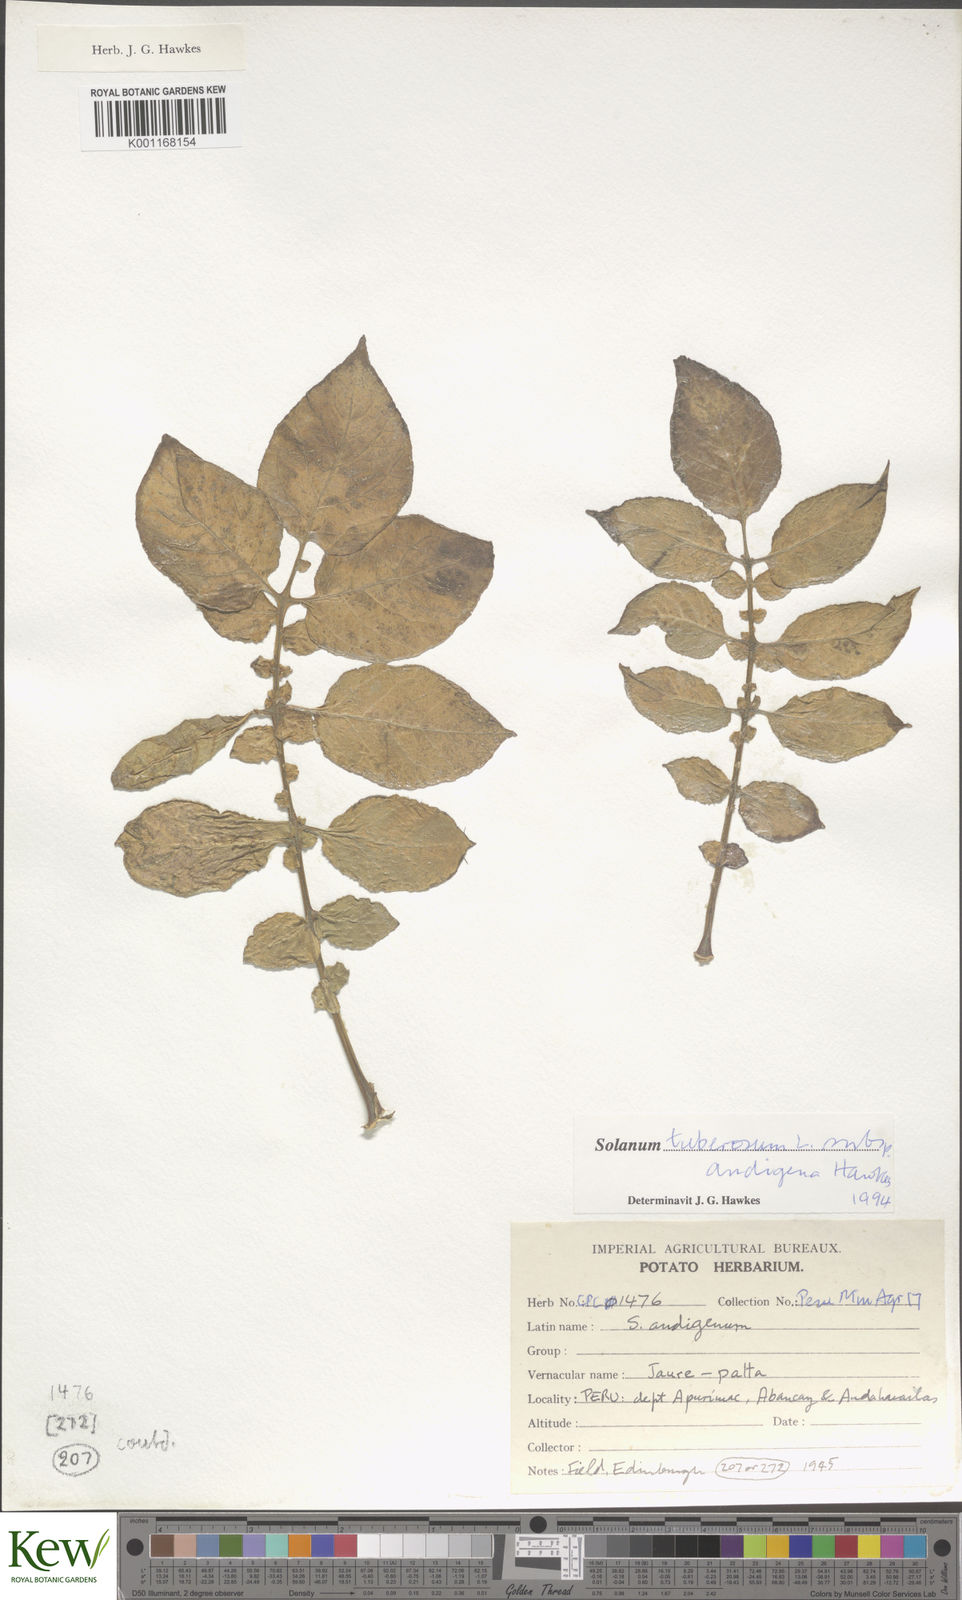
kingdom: Plantae
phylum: Tracheophyta
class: Magnoliopsida
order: Solanales
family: Solanaceae
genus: Solanum
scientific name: Solanum tuberosum
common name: Potato
